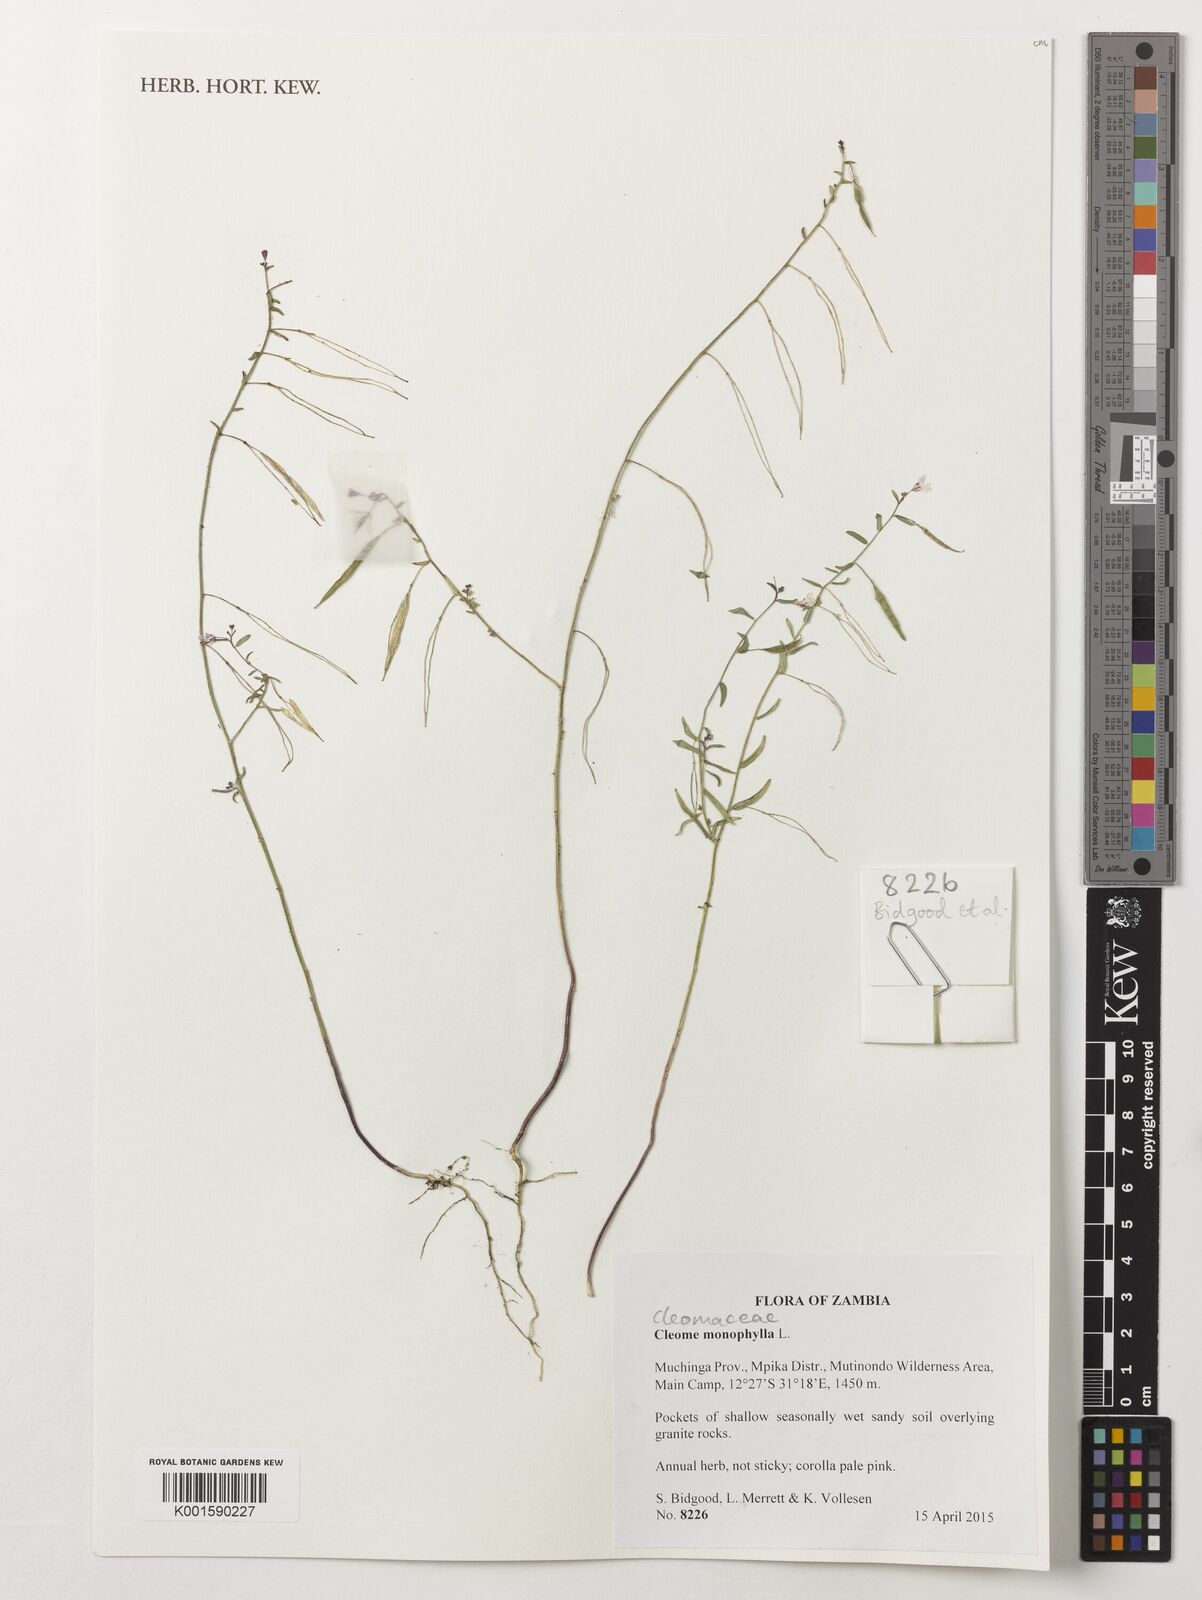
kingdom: Plantae
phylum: Tracheophyta
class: Magnoliopsida
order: Brassicales
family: Cleomaceae
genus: Sieruela
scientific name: Sieruela monophylla
